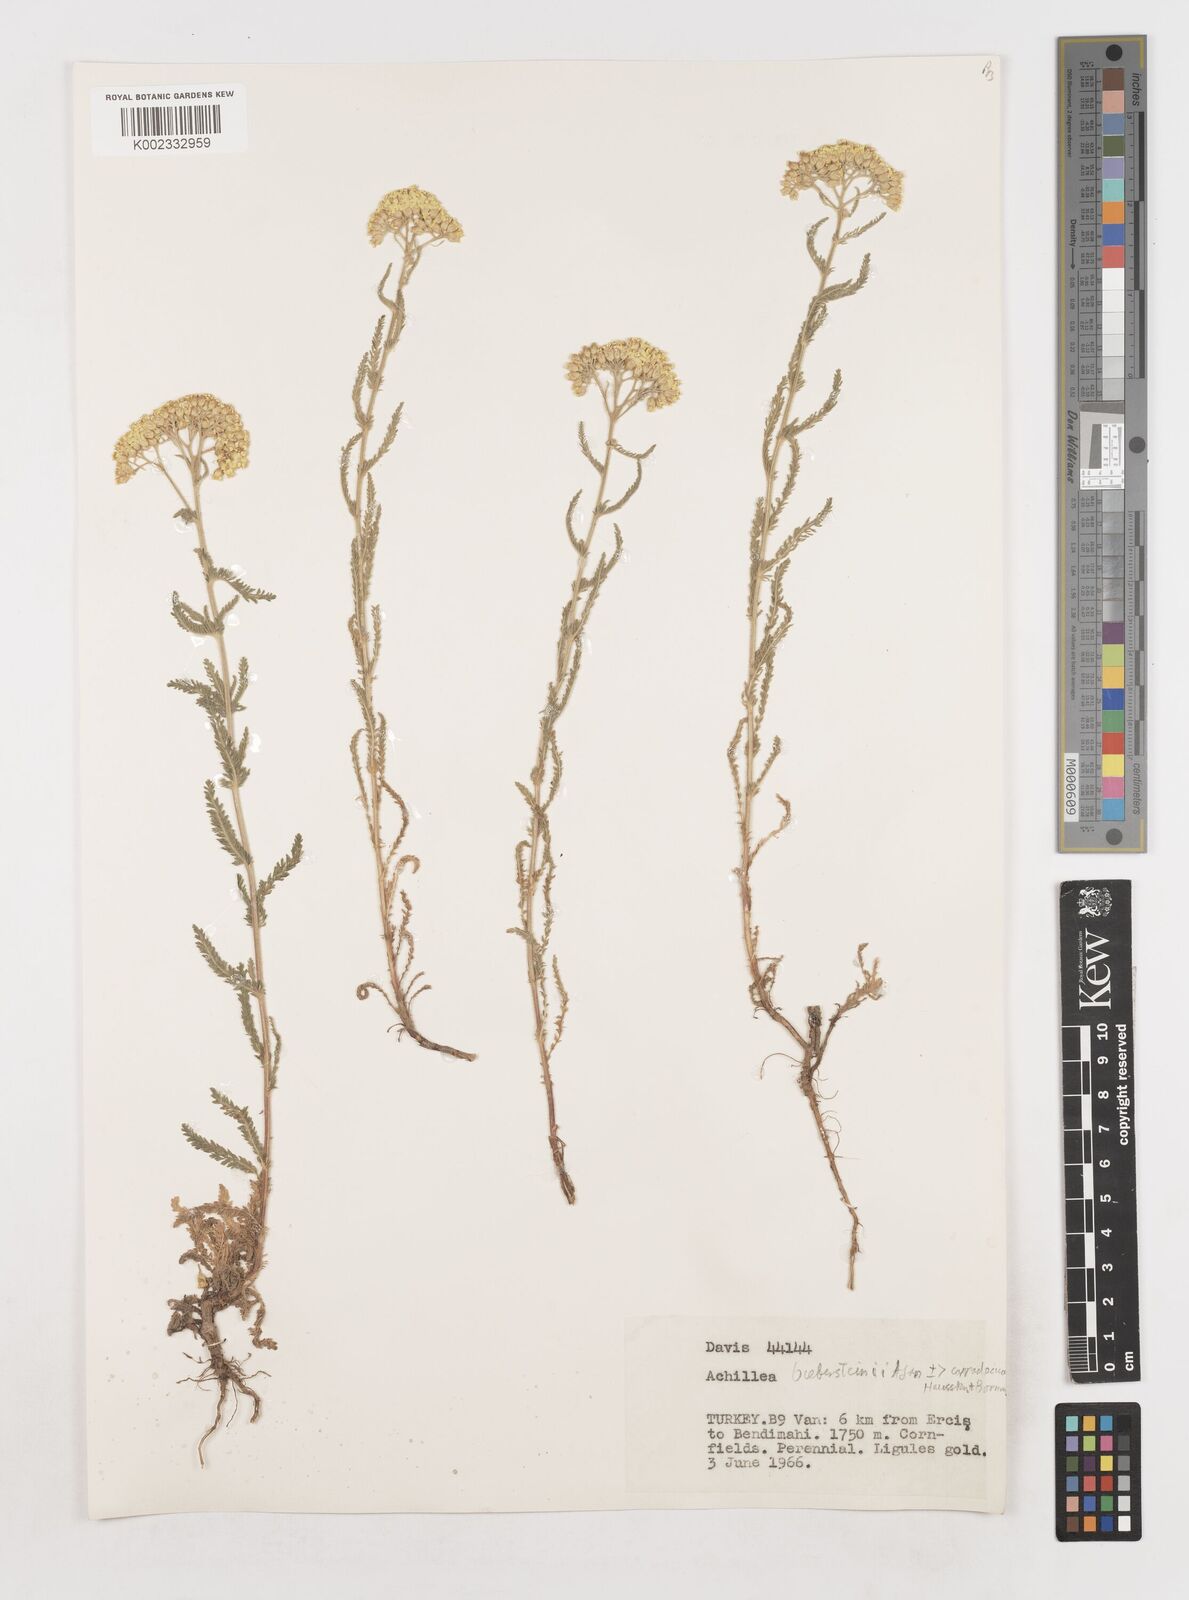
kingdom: Plantae
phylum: Tracheophyta
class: Magnoliopsida
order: Asterales
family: Asteraceae
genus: Achillea
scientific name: Achillea arabica
